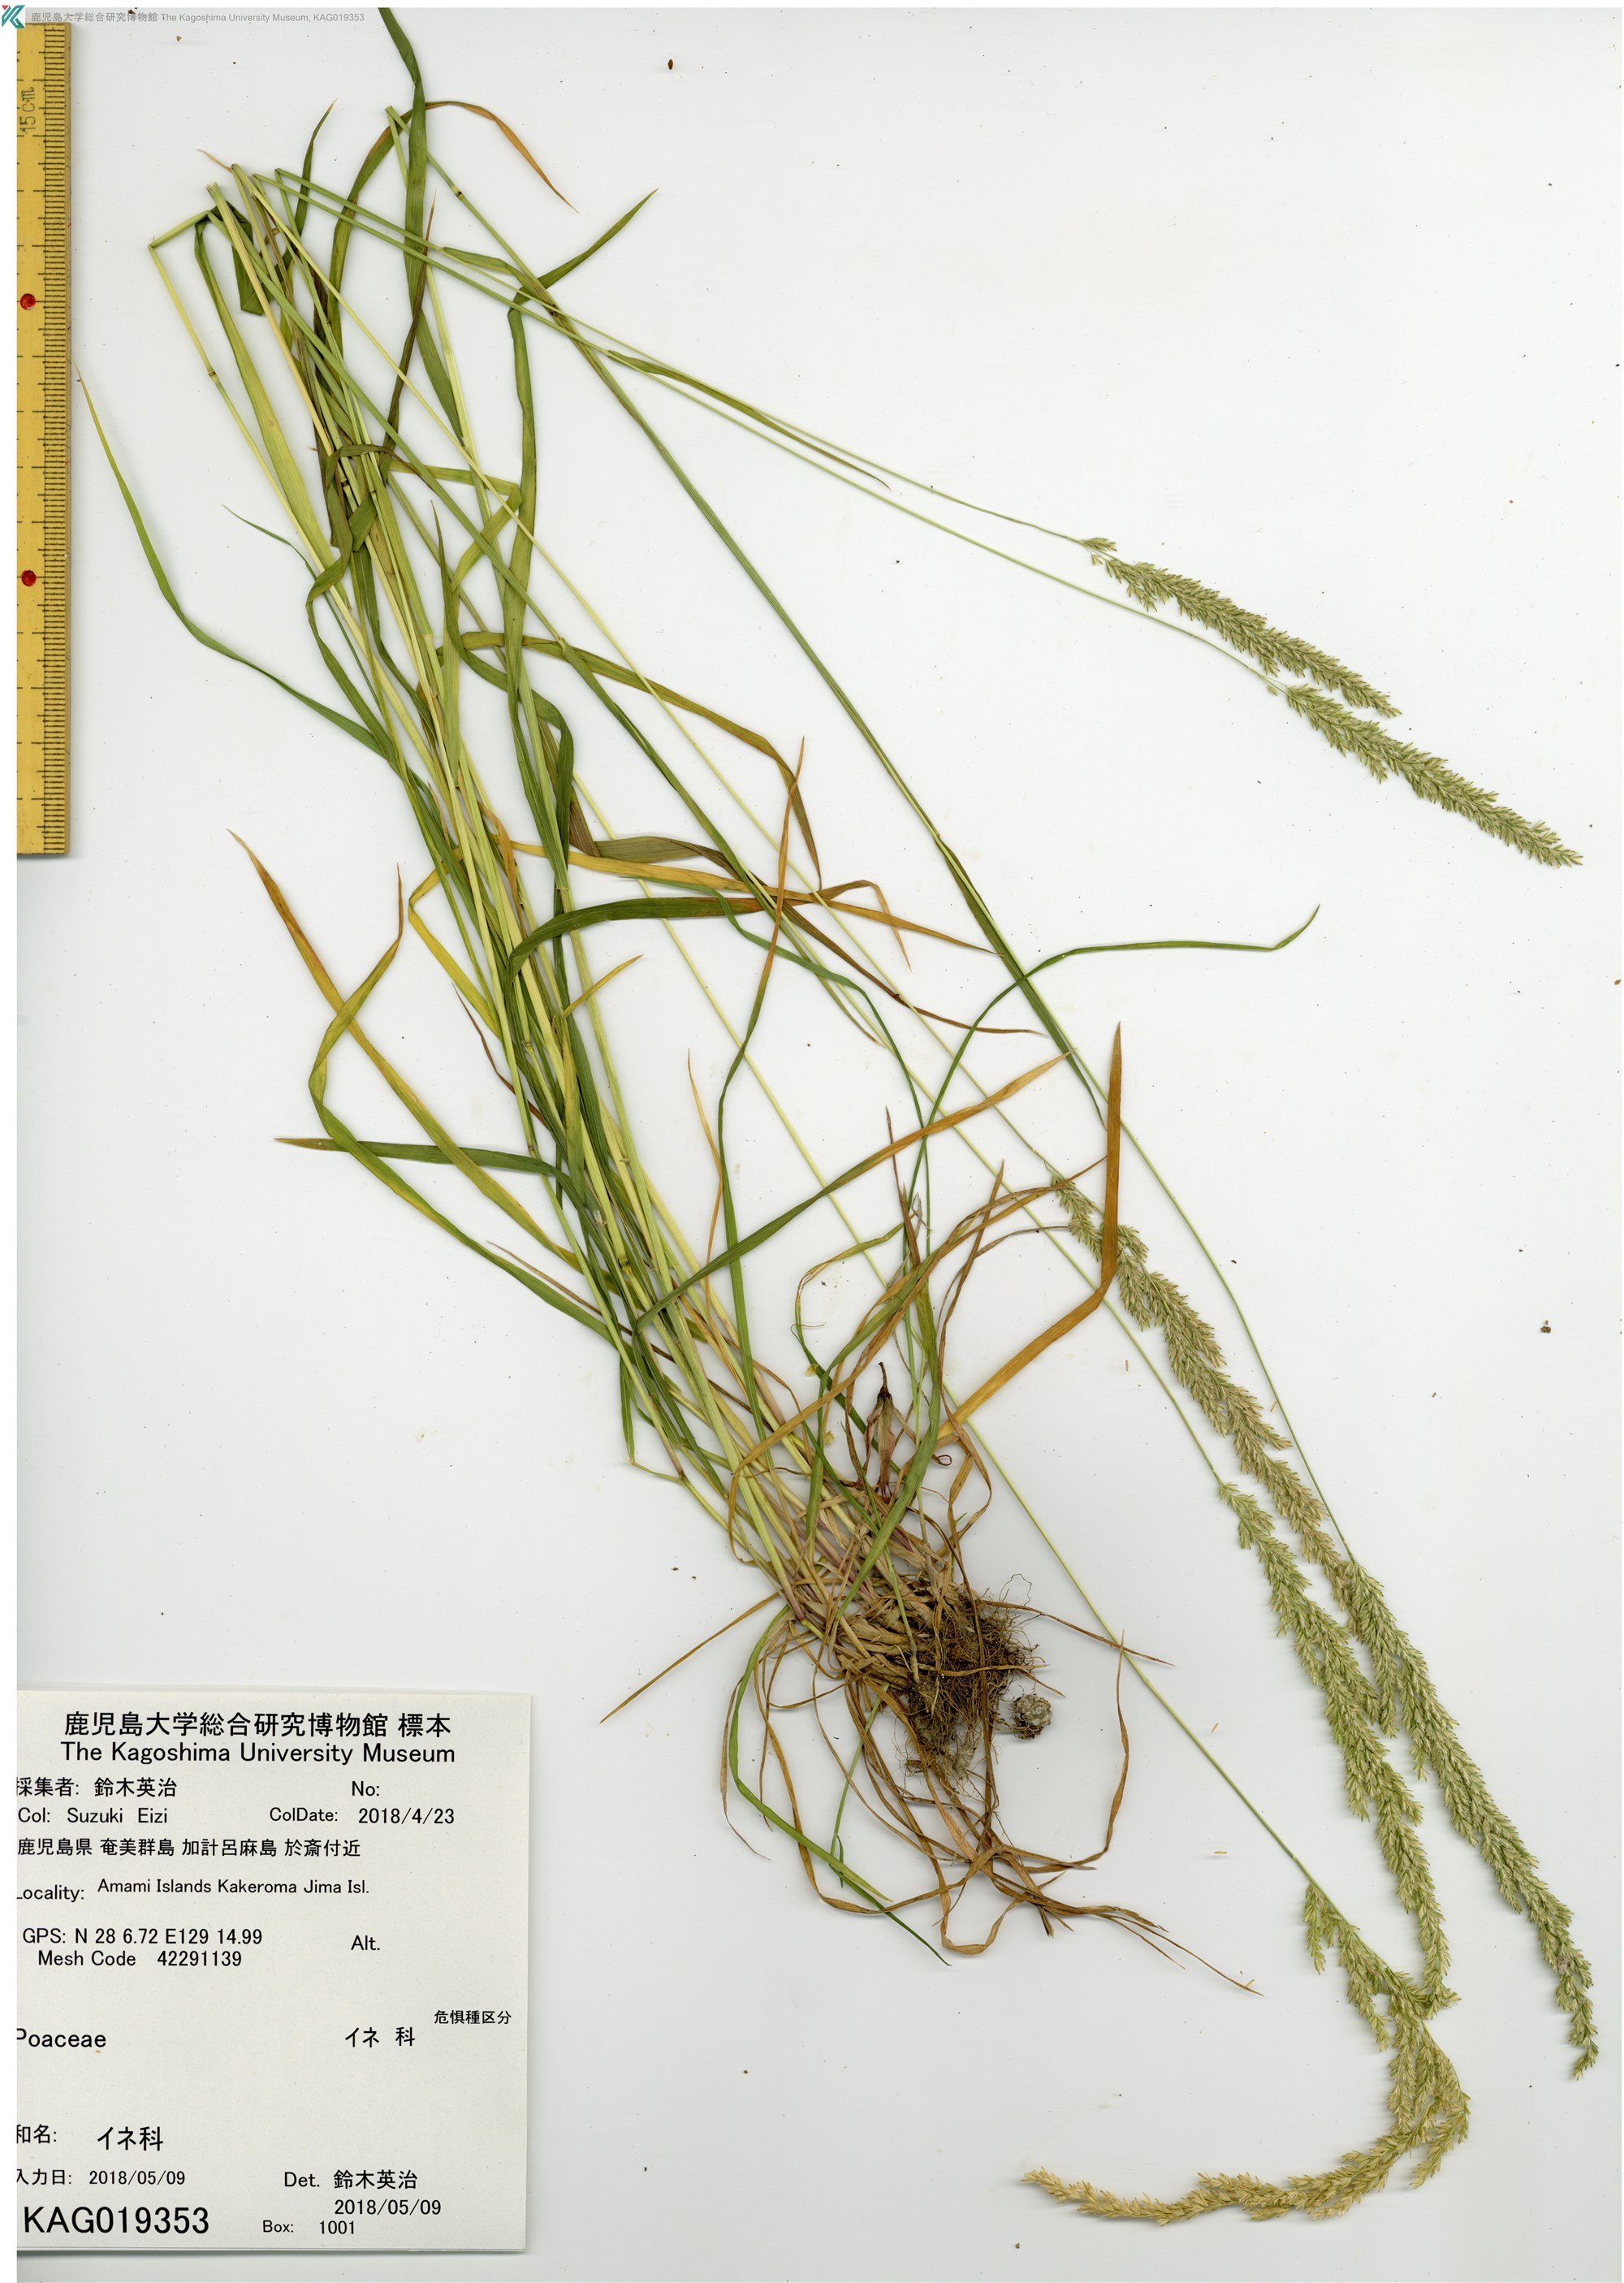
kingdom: Plantae
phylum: Tracheophyta
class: Liliopsida
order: Poales
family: Poaceae
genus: Koeleria
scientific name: Koeleria macrantha
